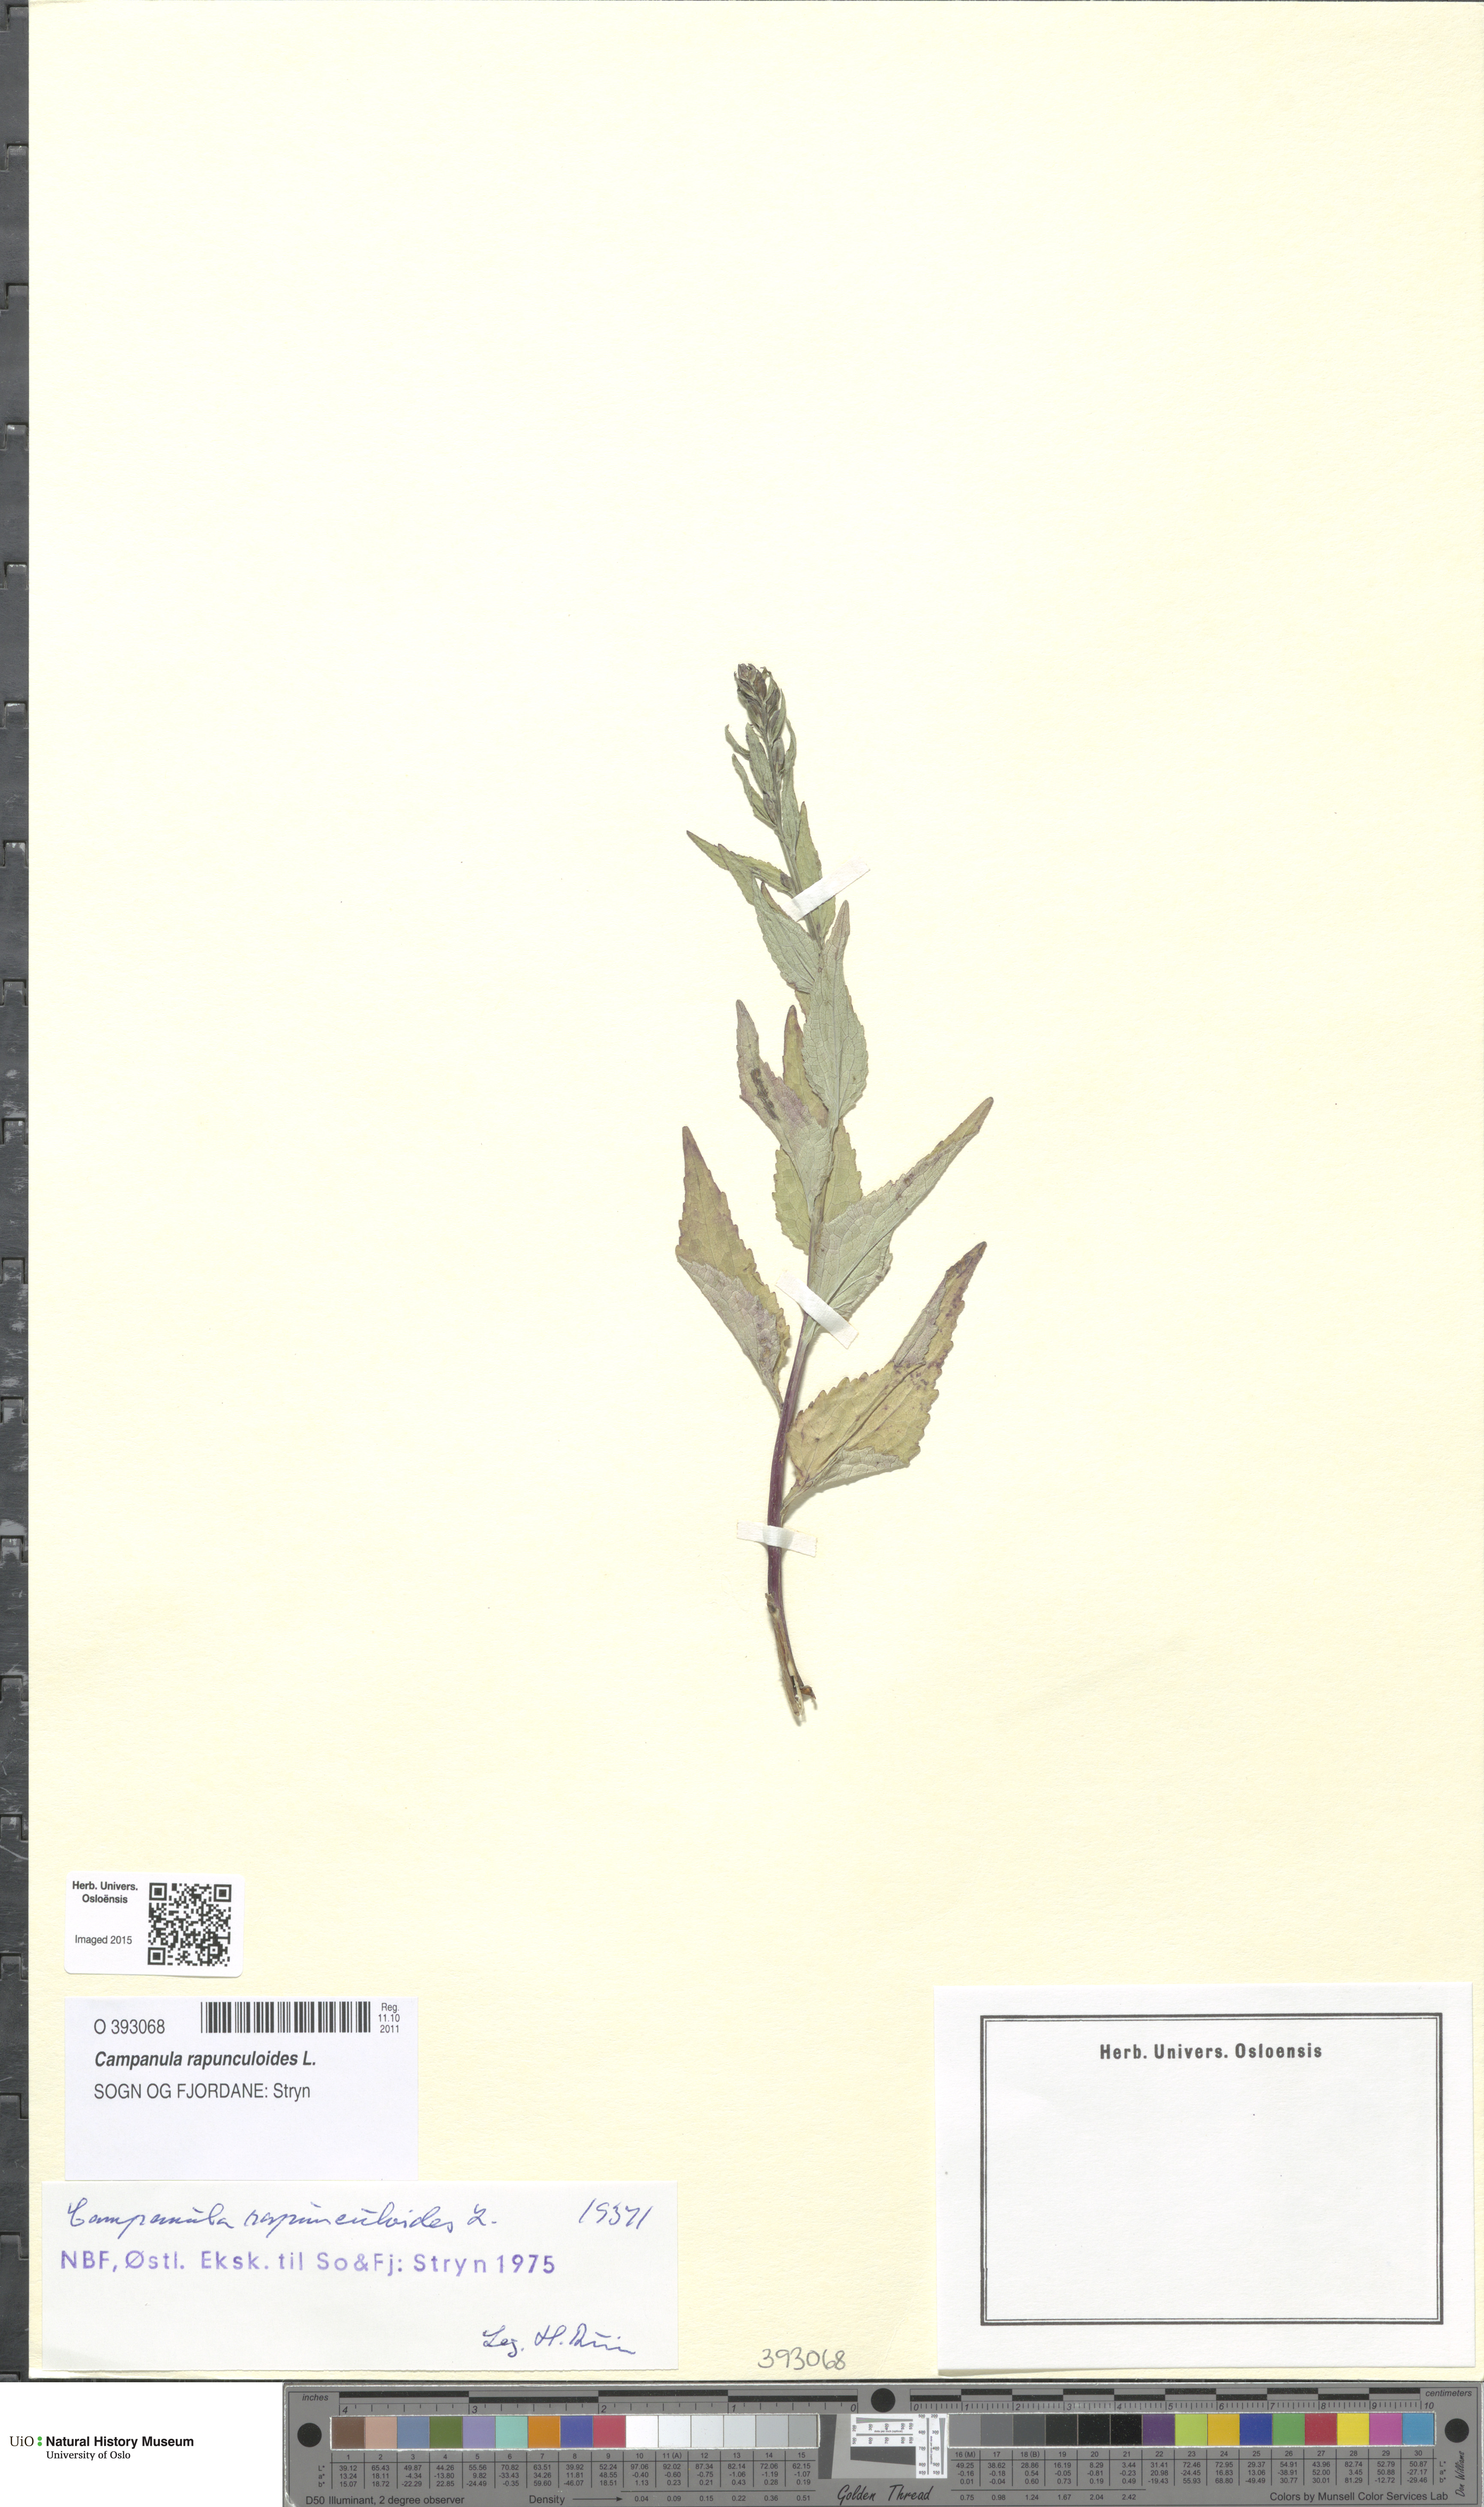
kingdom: Plantae
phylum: Tracheophyta
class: Magnoliopsida
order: Asterales
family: Campanulaceae
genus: Campanula
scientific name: Campanula rapunculoides
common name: Creeping bellflower
